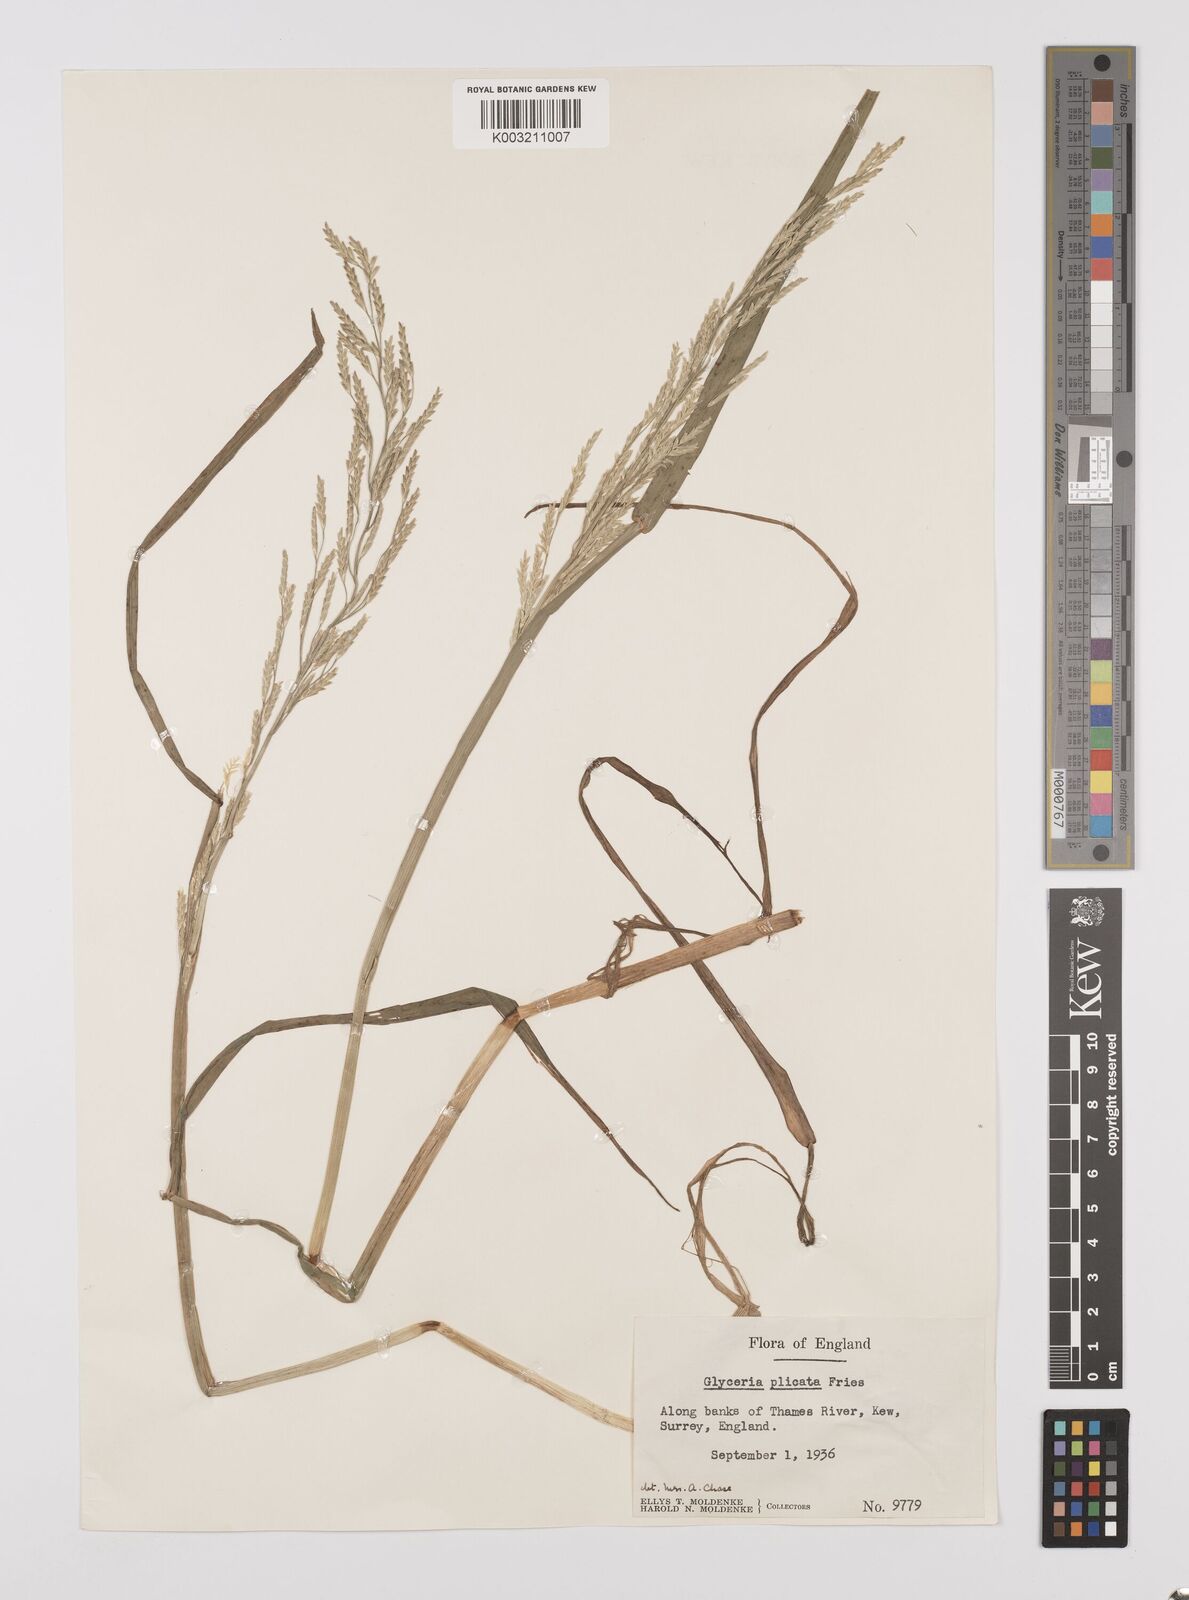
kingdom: Plantae
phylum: Tracheophyta
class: Liliopsida
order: Poales
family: Poaceae
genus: Glyceria
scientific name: Glyceria notata
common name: Plicate sweet-grass
